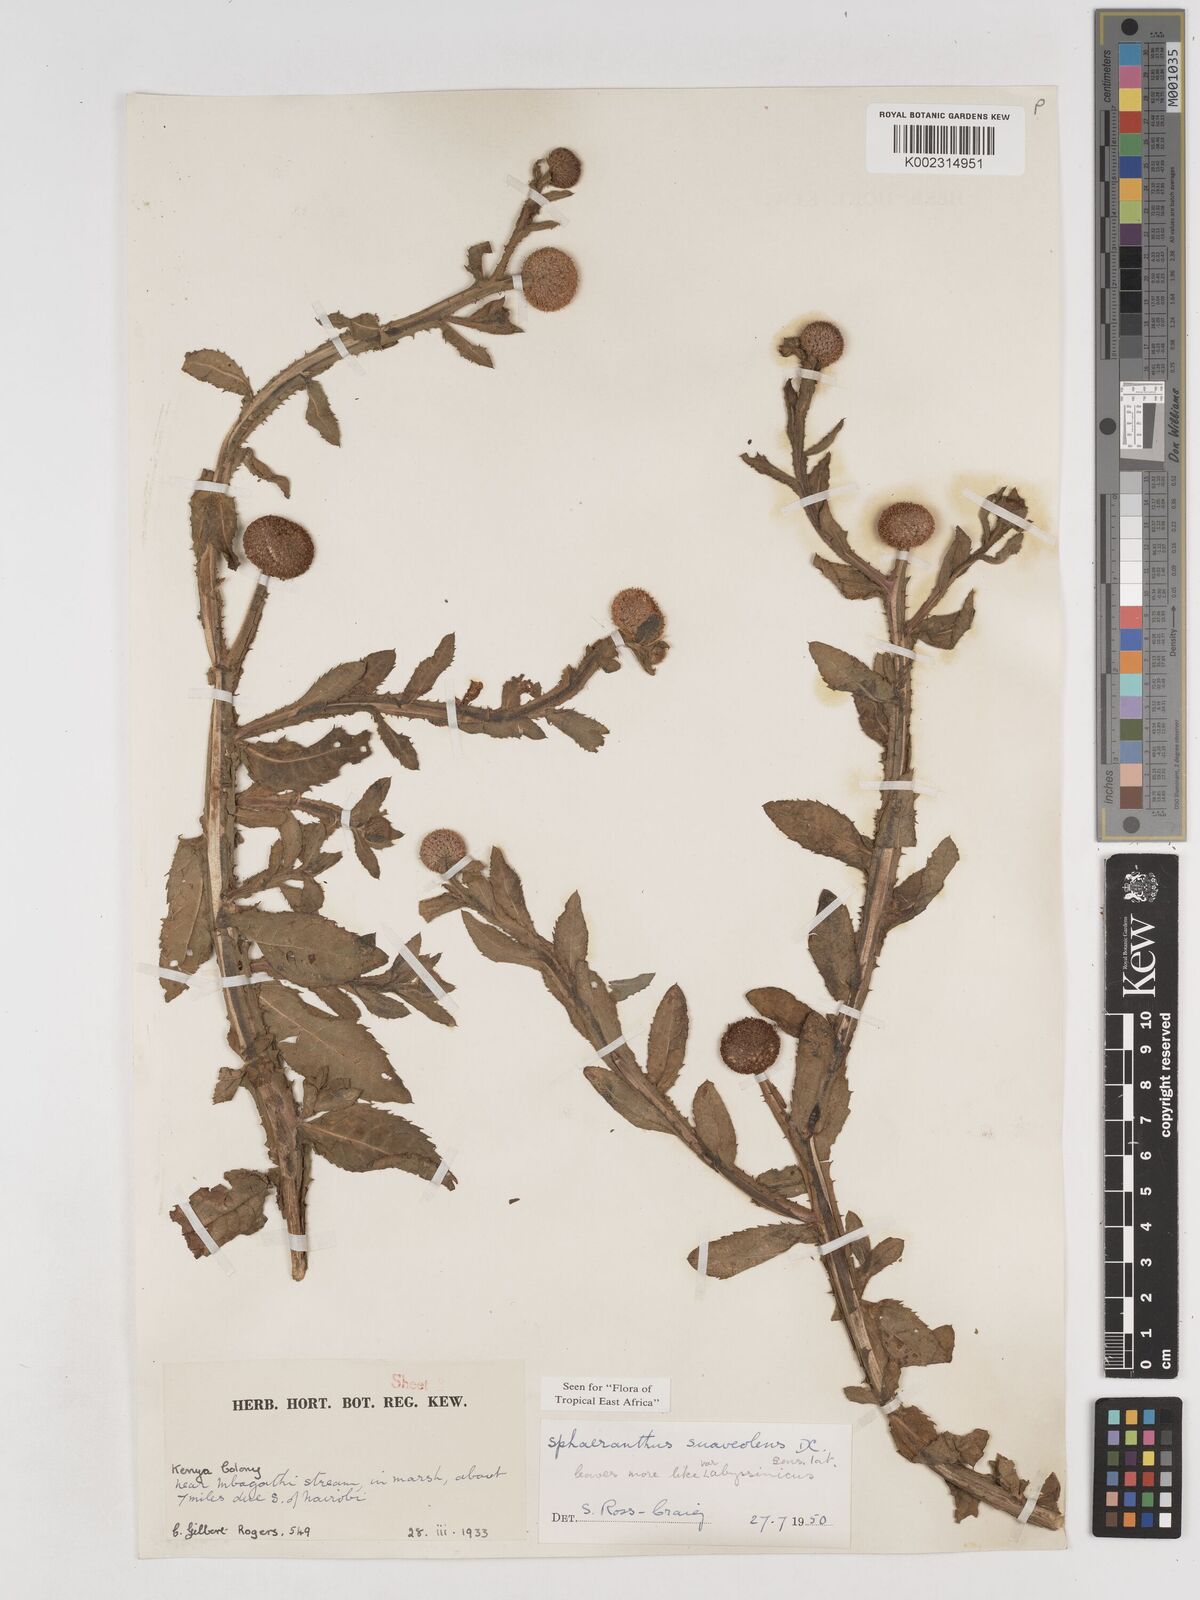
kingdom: Plantae
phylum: Tracheophyta
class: Magnoliopsida
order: Asterales
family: Asteraceae
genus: Sphaeranthus
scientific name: Sphaeranthus suaveolens
